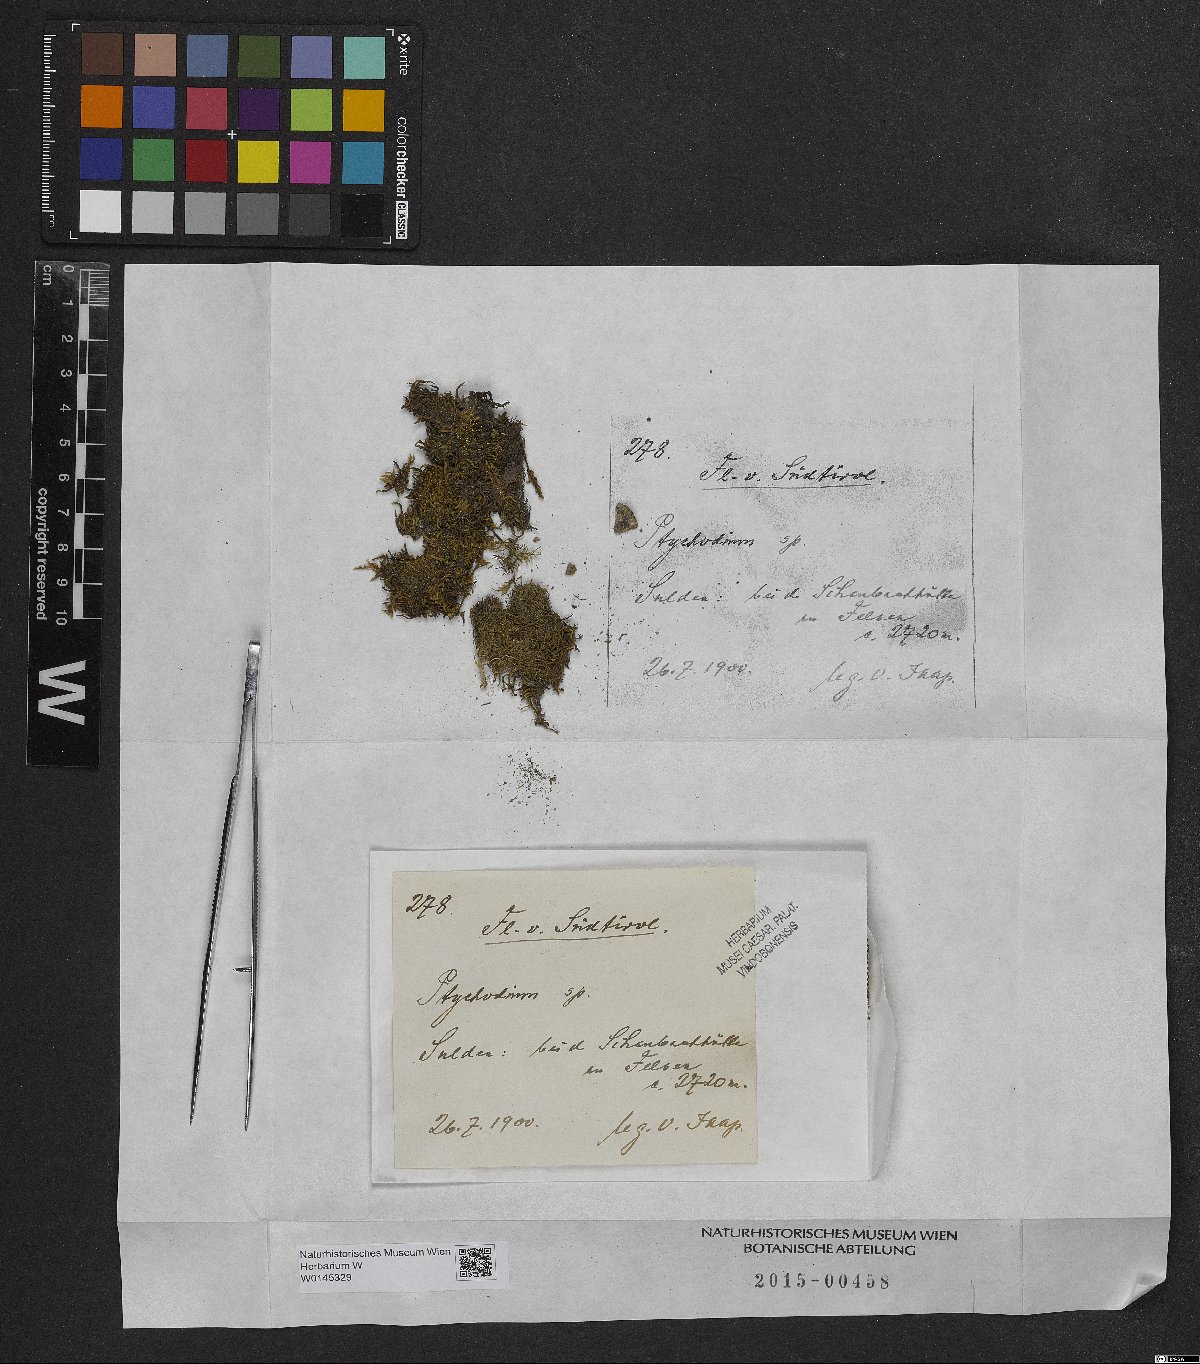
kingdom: Plantae
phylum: Bryophyta
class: Bryopsida
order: Hypnales
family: Pseudoleskeaceae
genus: Lescuraea
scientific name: Lescuraea
